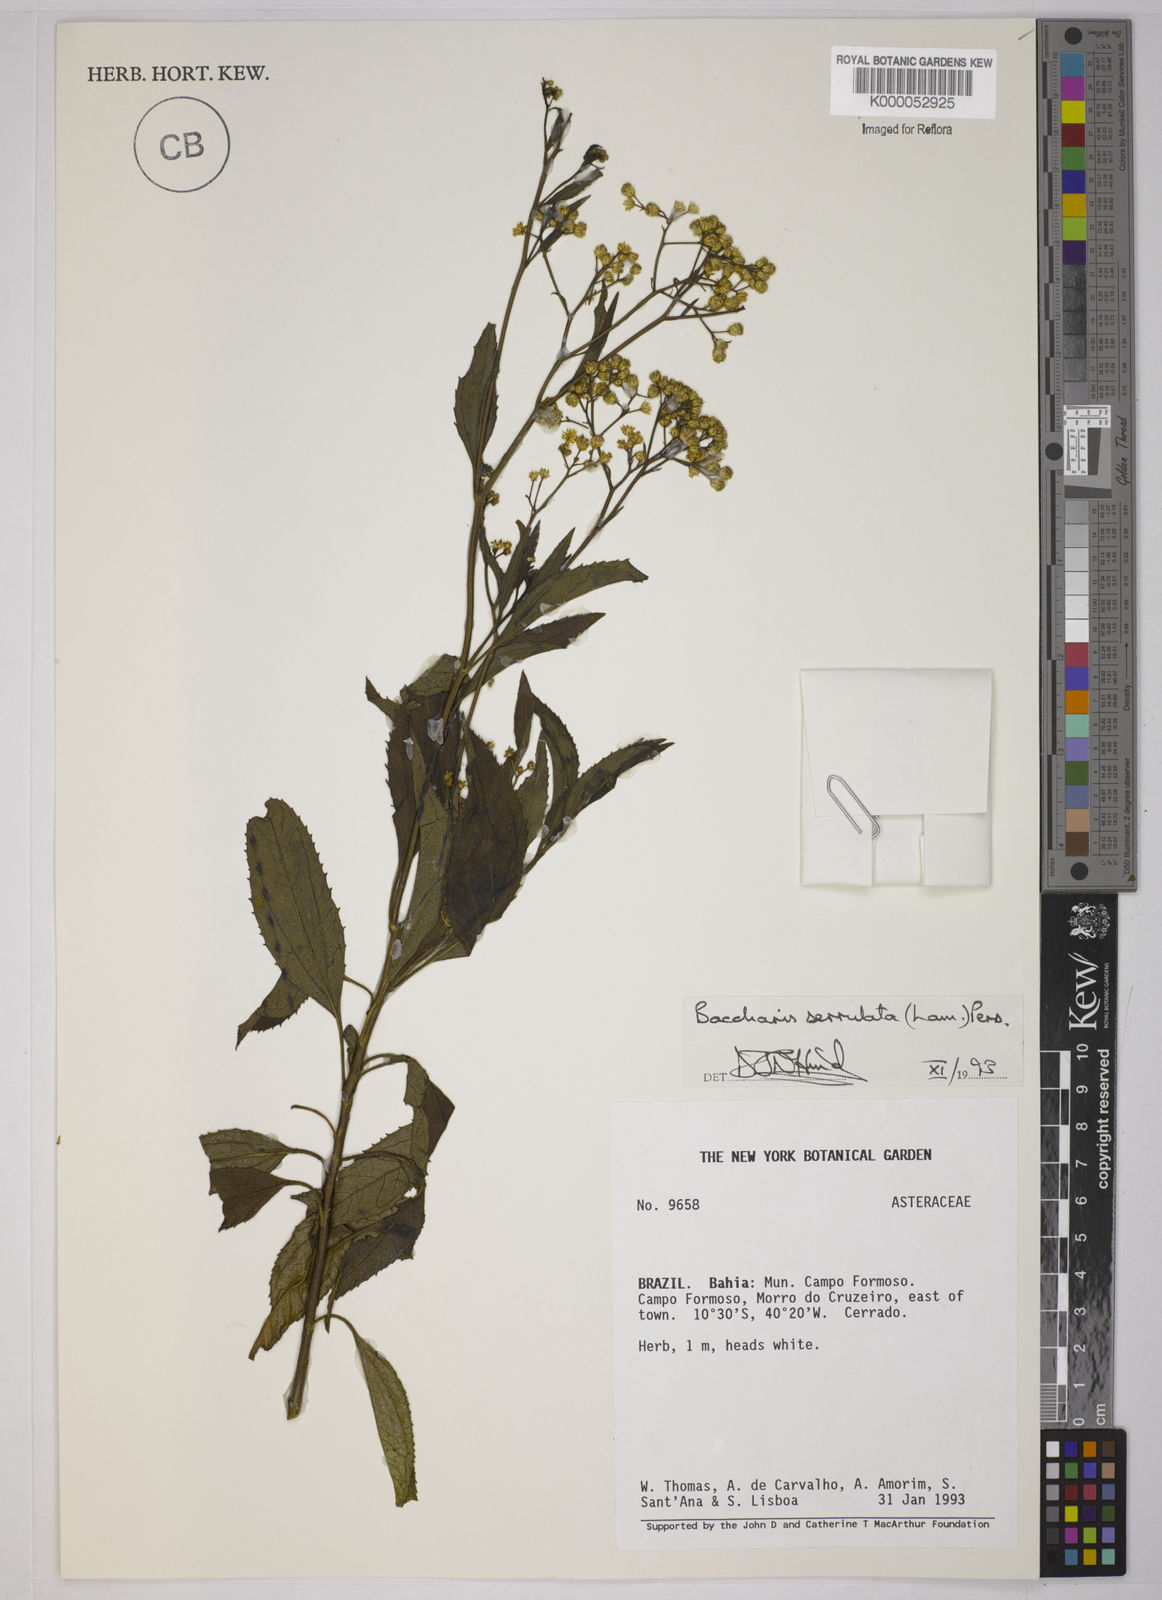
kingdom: Plantae
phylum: Tracheophyta
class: Magnoliopsida
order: Asterales
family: Asteraceae
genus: Baccharis
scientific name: Baccharis serrulata
